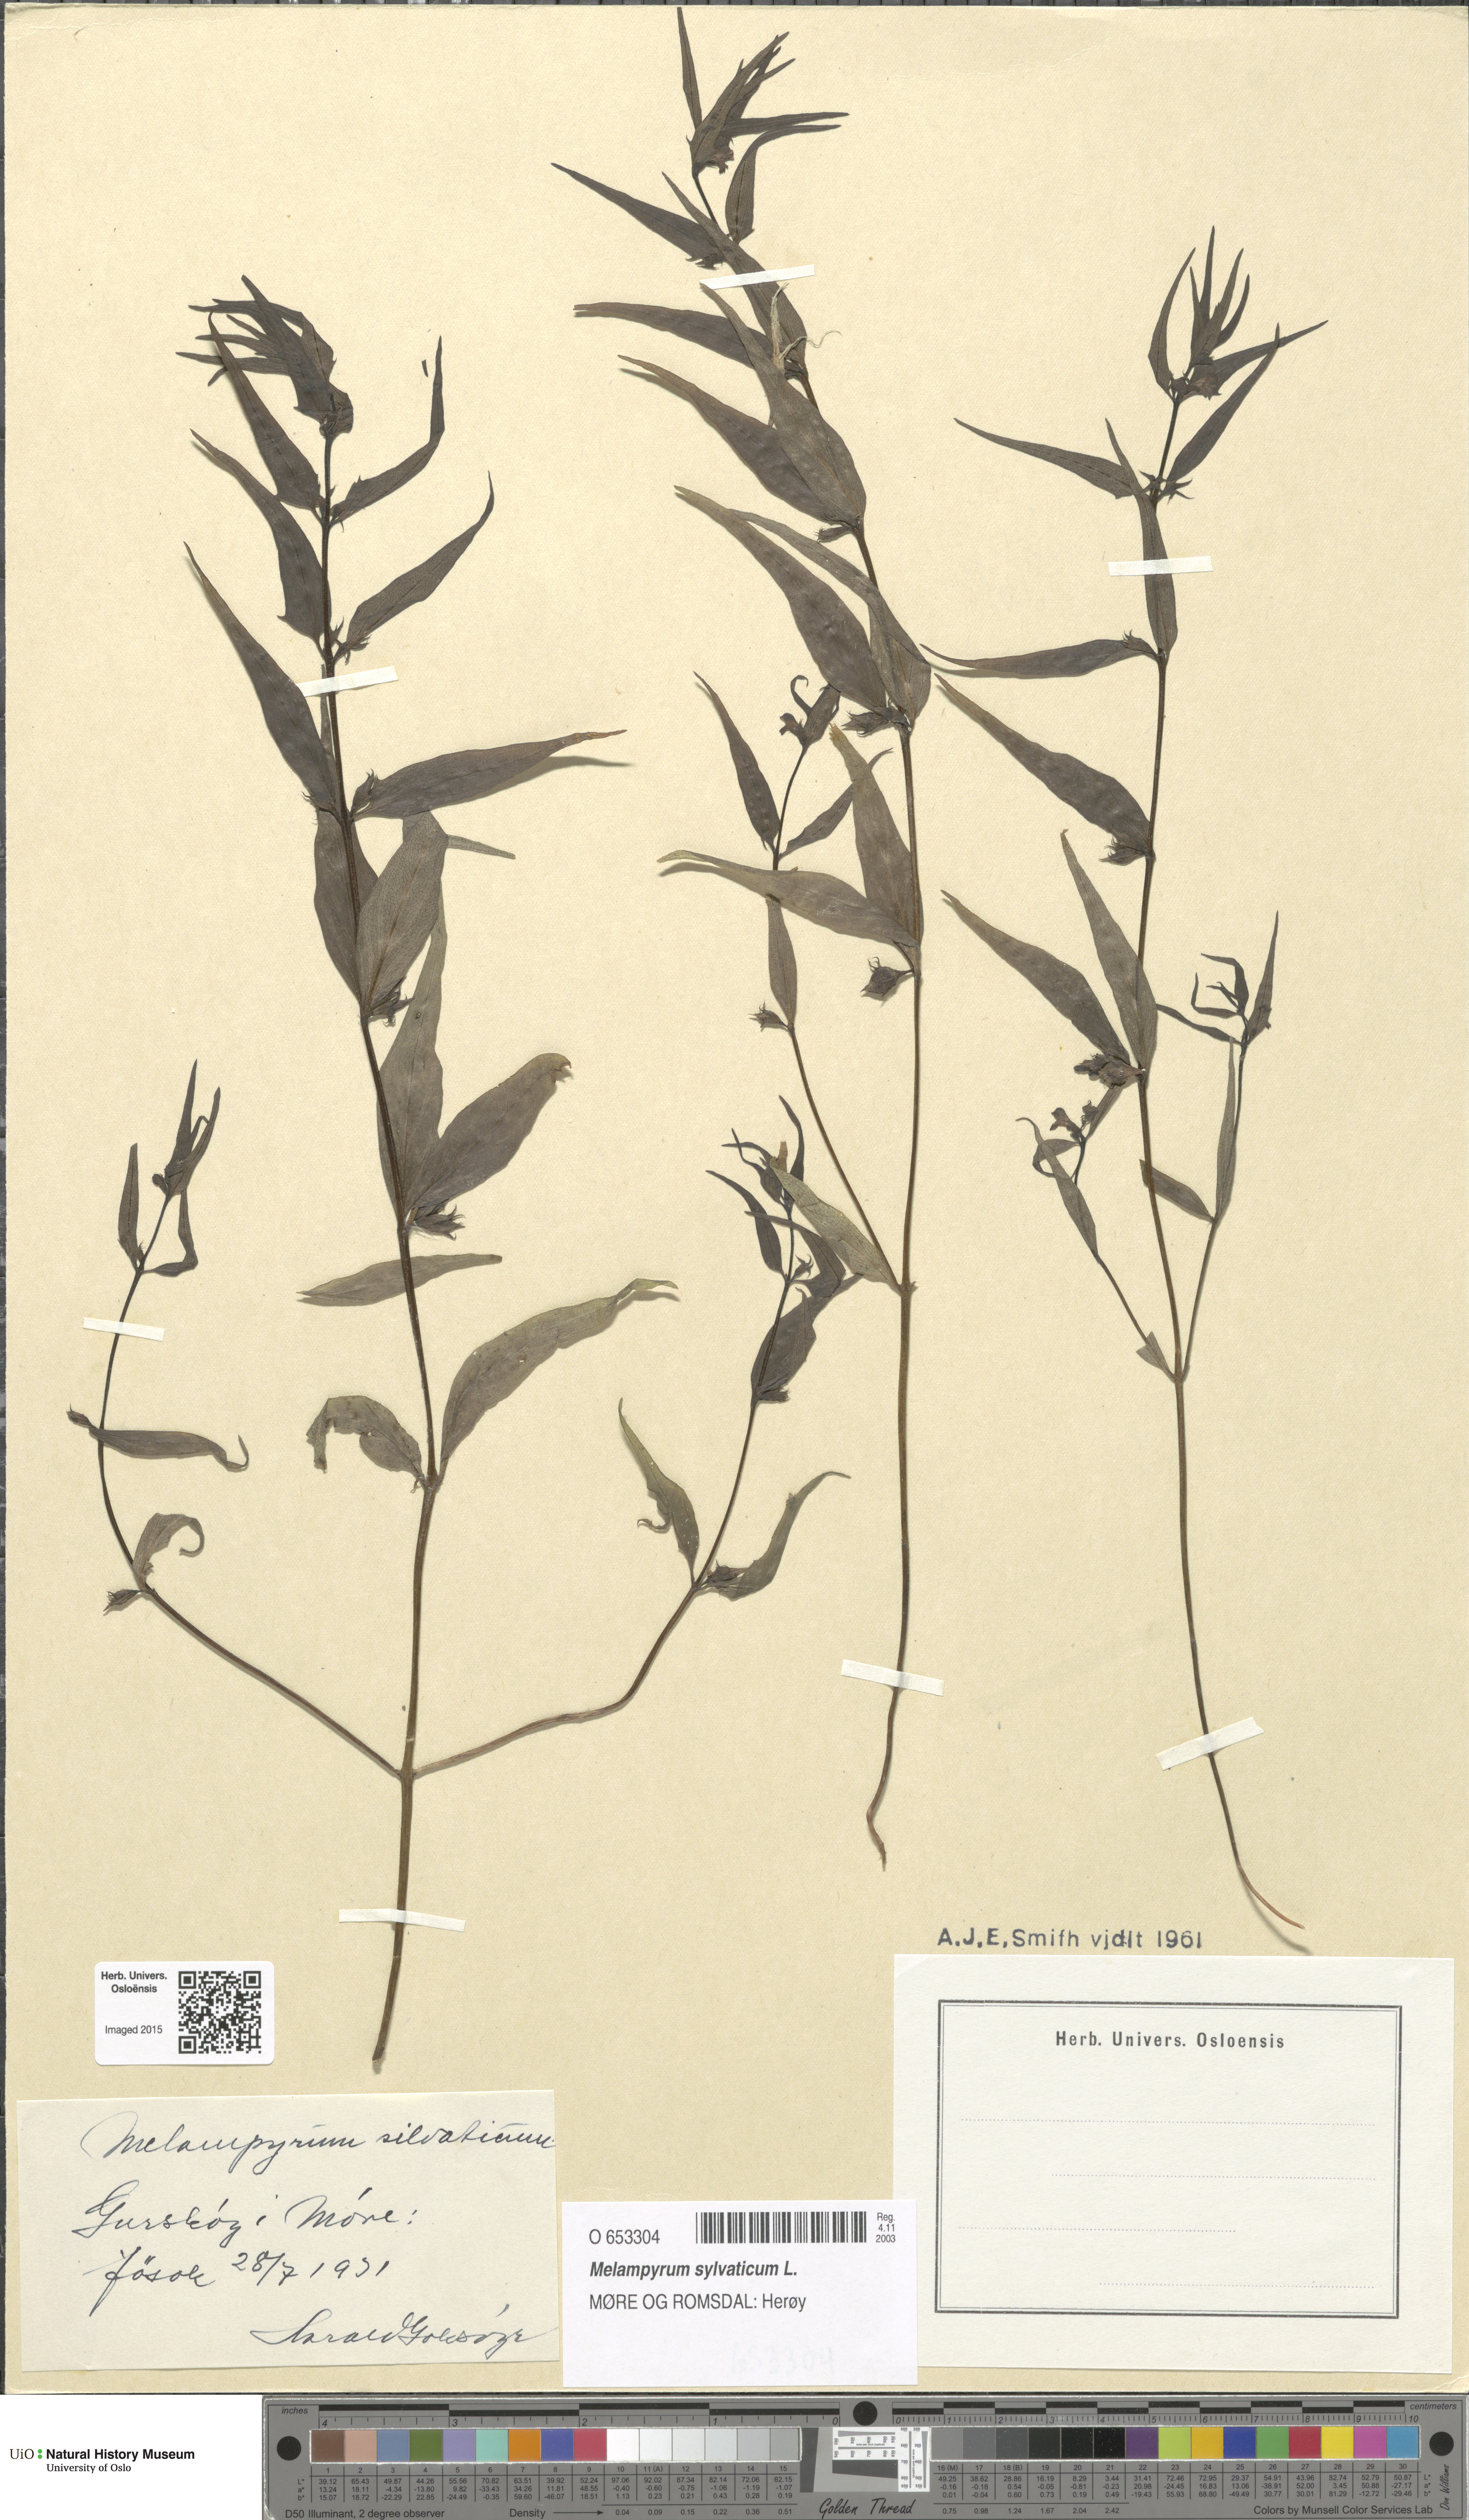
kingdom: Plantae
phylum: Tracheophyta
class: Magnoliopsida
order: Lamiales
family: Orobanchaceae
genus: Melampyrum
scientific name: Melampyrum sylvaticum
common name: Small cow-wheat
